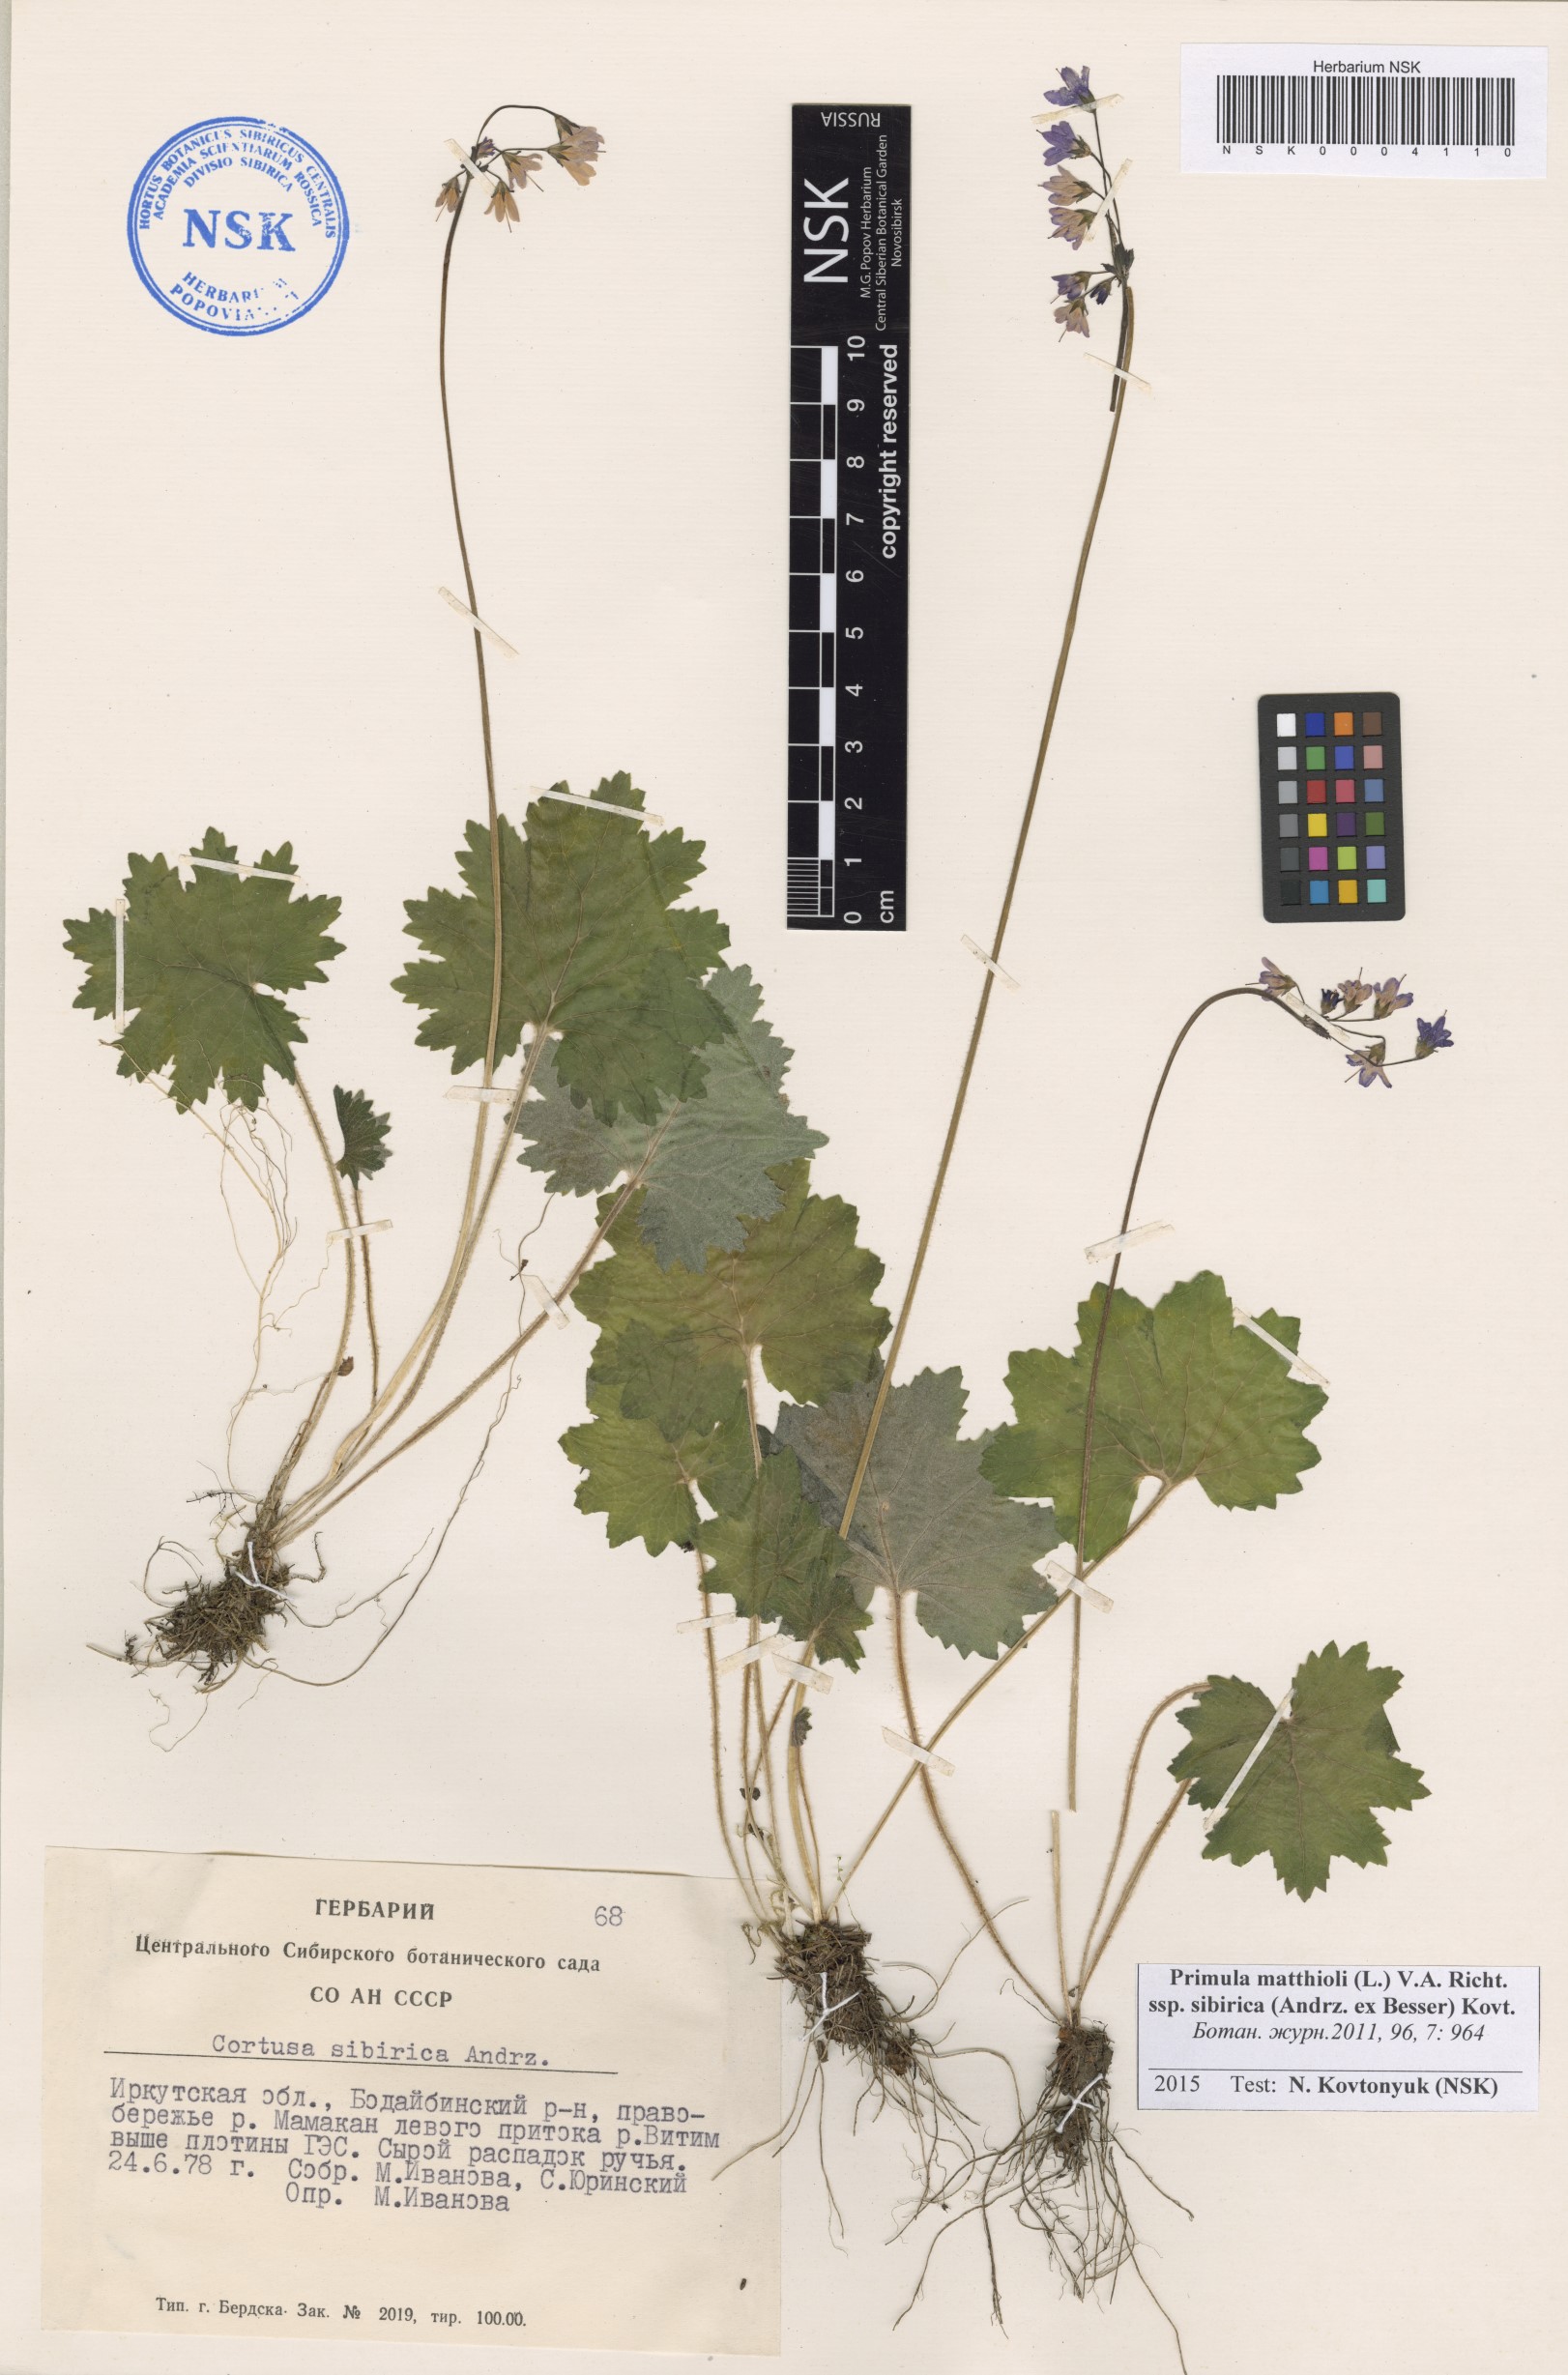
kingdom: Plantae
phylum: Tracheophyta
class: Magnoliopsida
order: Ericales
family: Primulaceae
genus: Primula
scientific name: Primula matthioli
